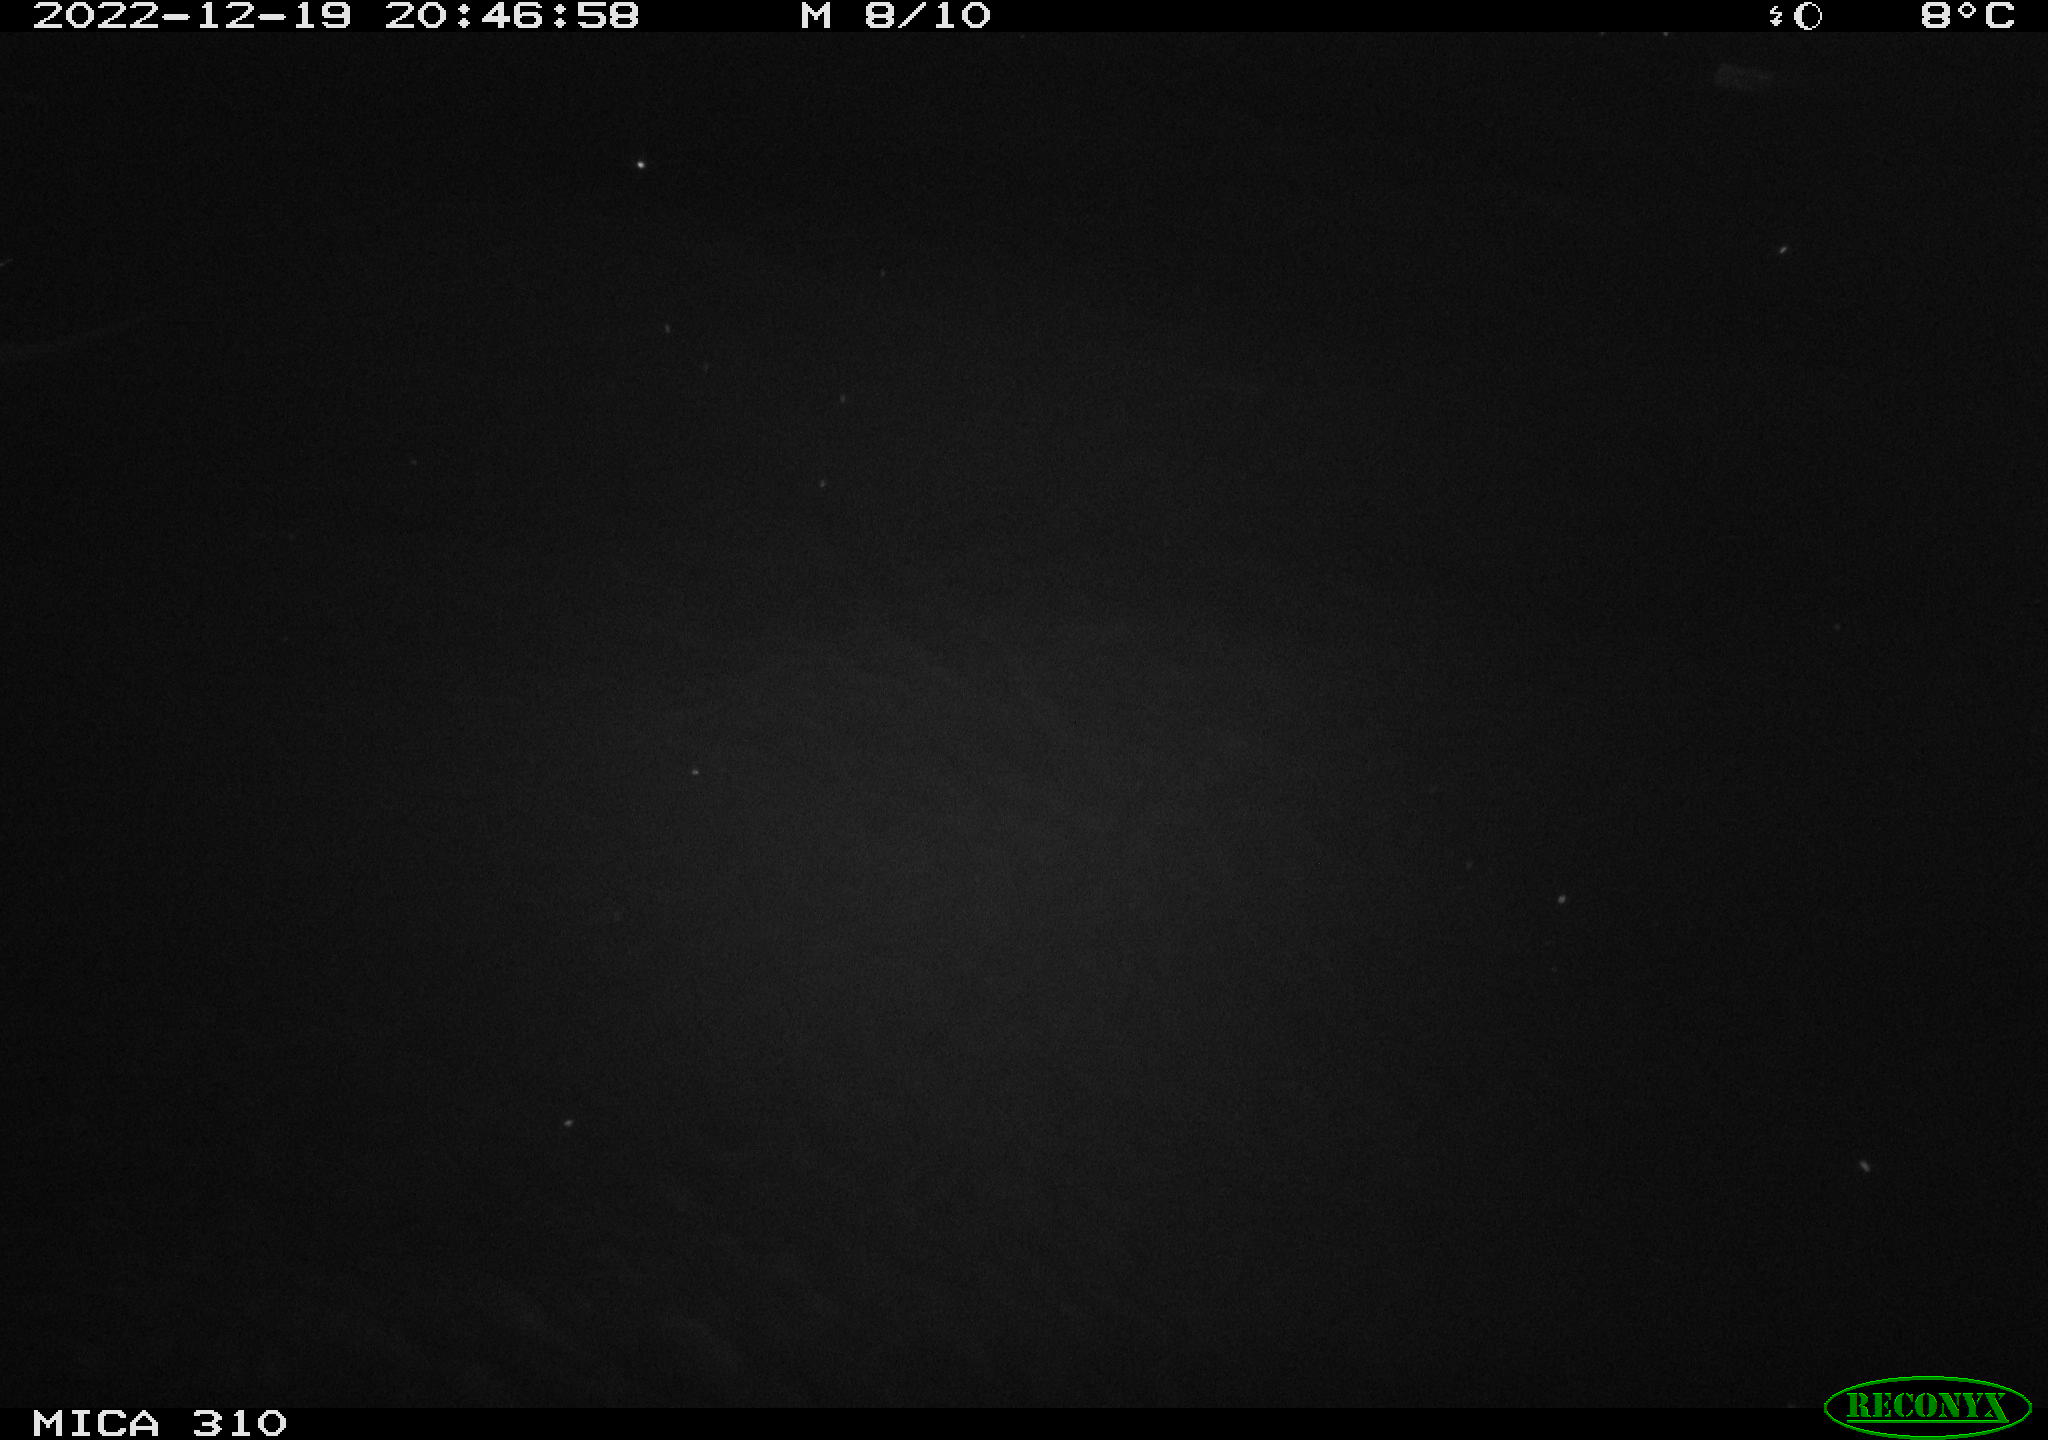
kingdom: Animalia
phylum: Chordata
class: Mammalia
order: Rodentia
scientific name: Rodentia
